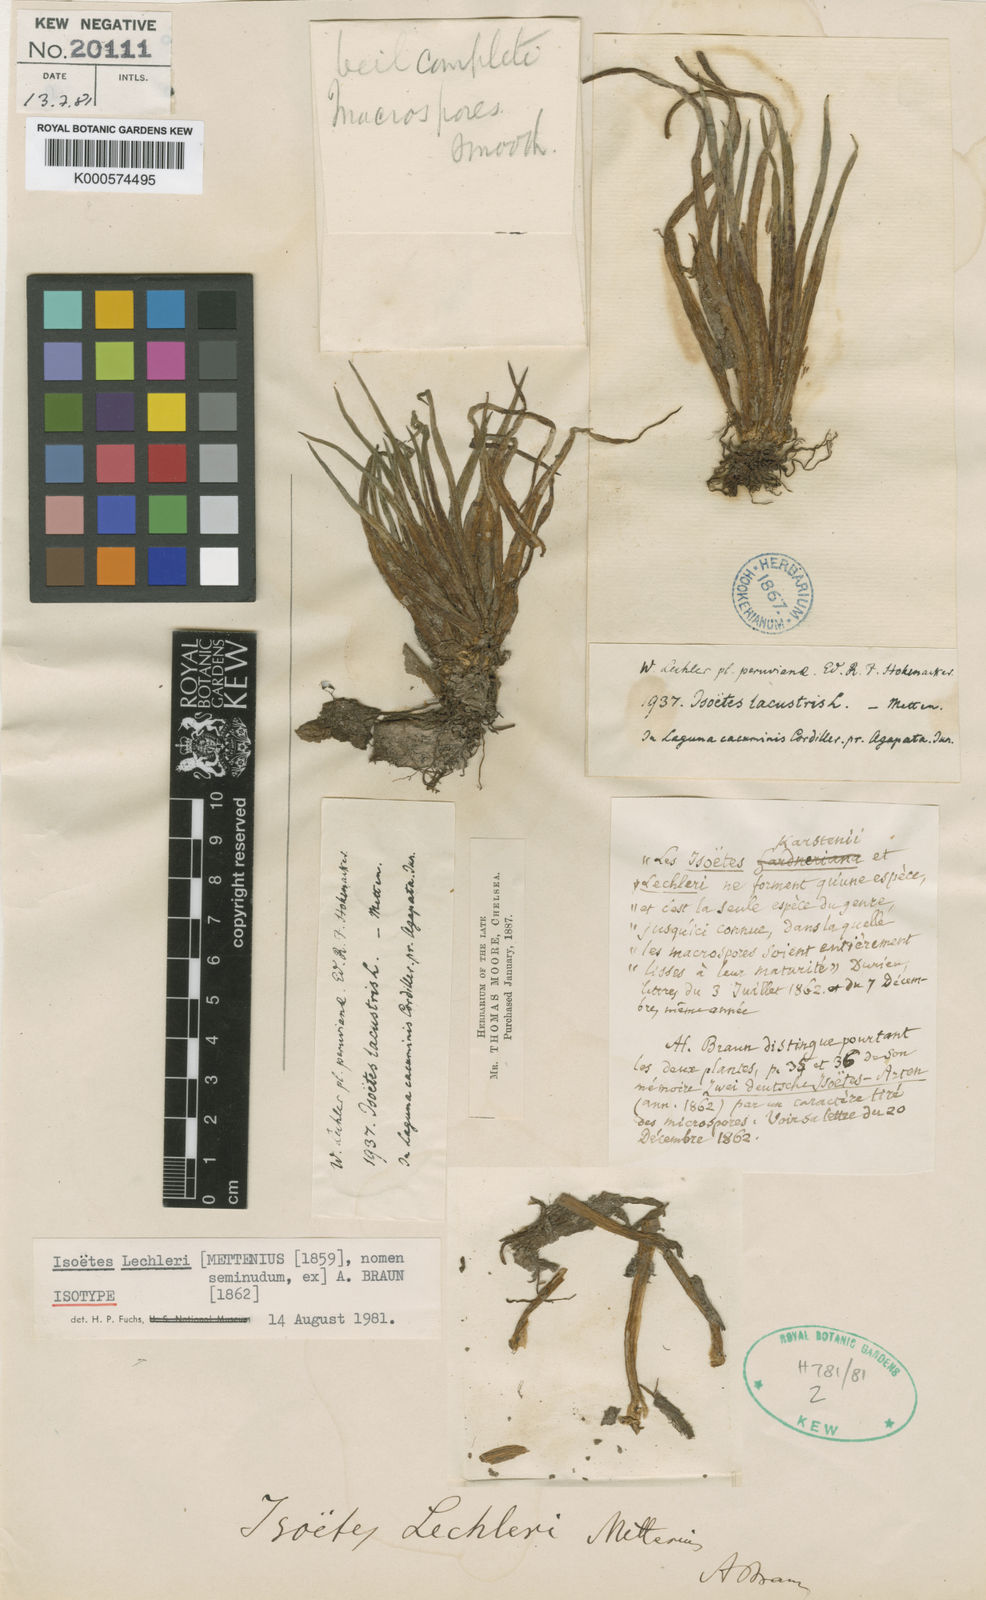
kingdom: Plantae
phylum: Tracheophyta
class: Lycopodiopsida
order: Isoetales
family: Isoetaceae
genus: Isoetes
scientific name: Isoetes lechleri
